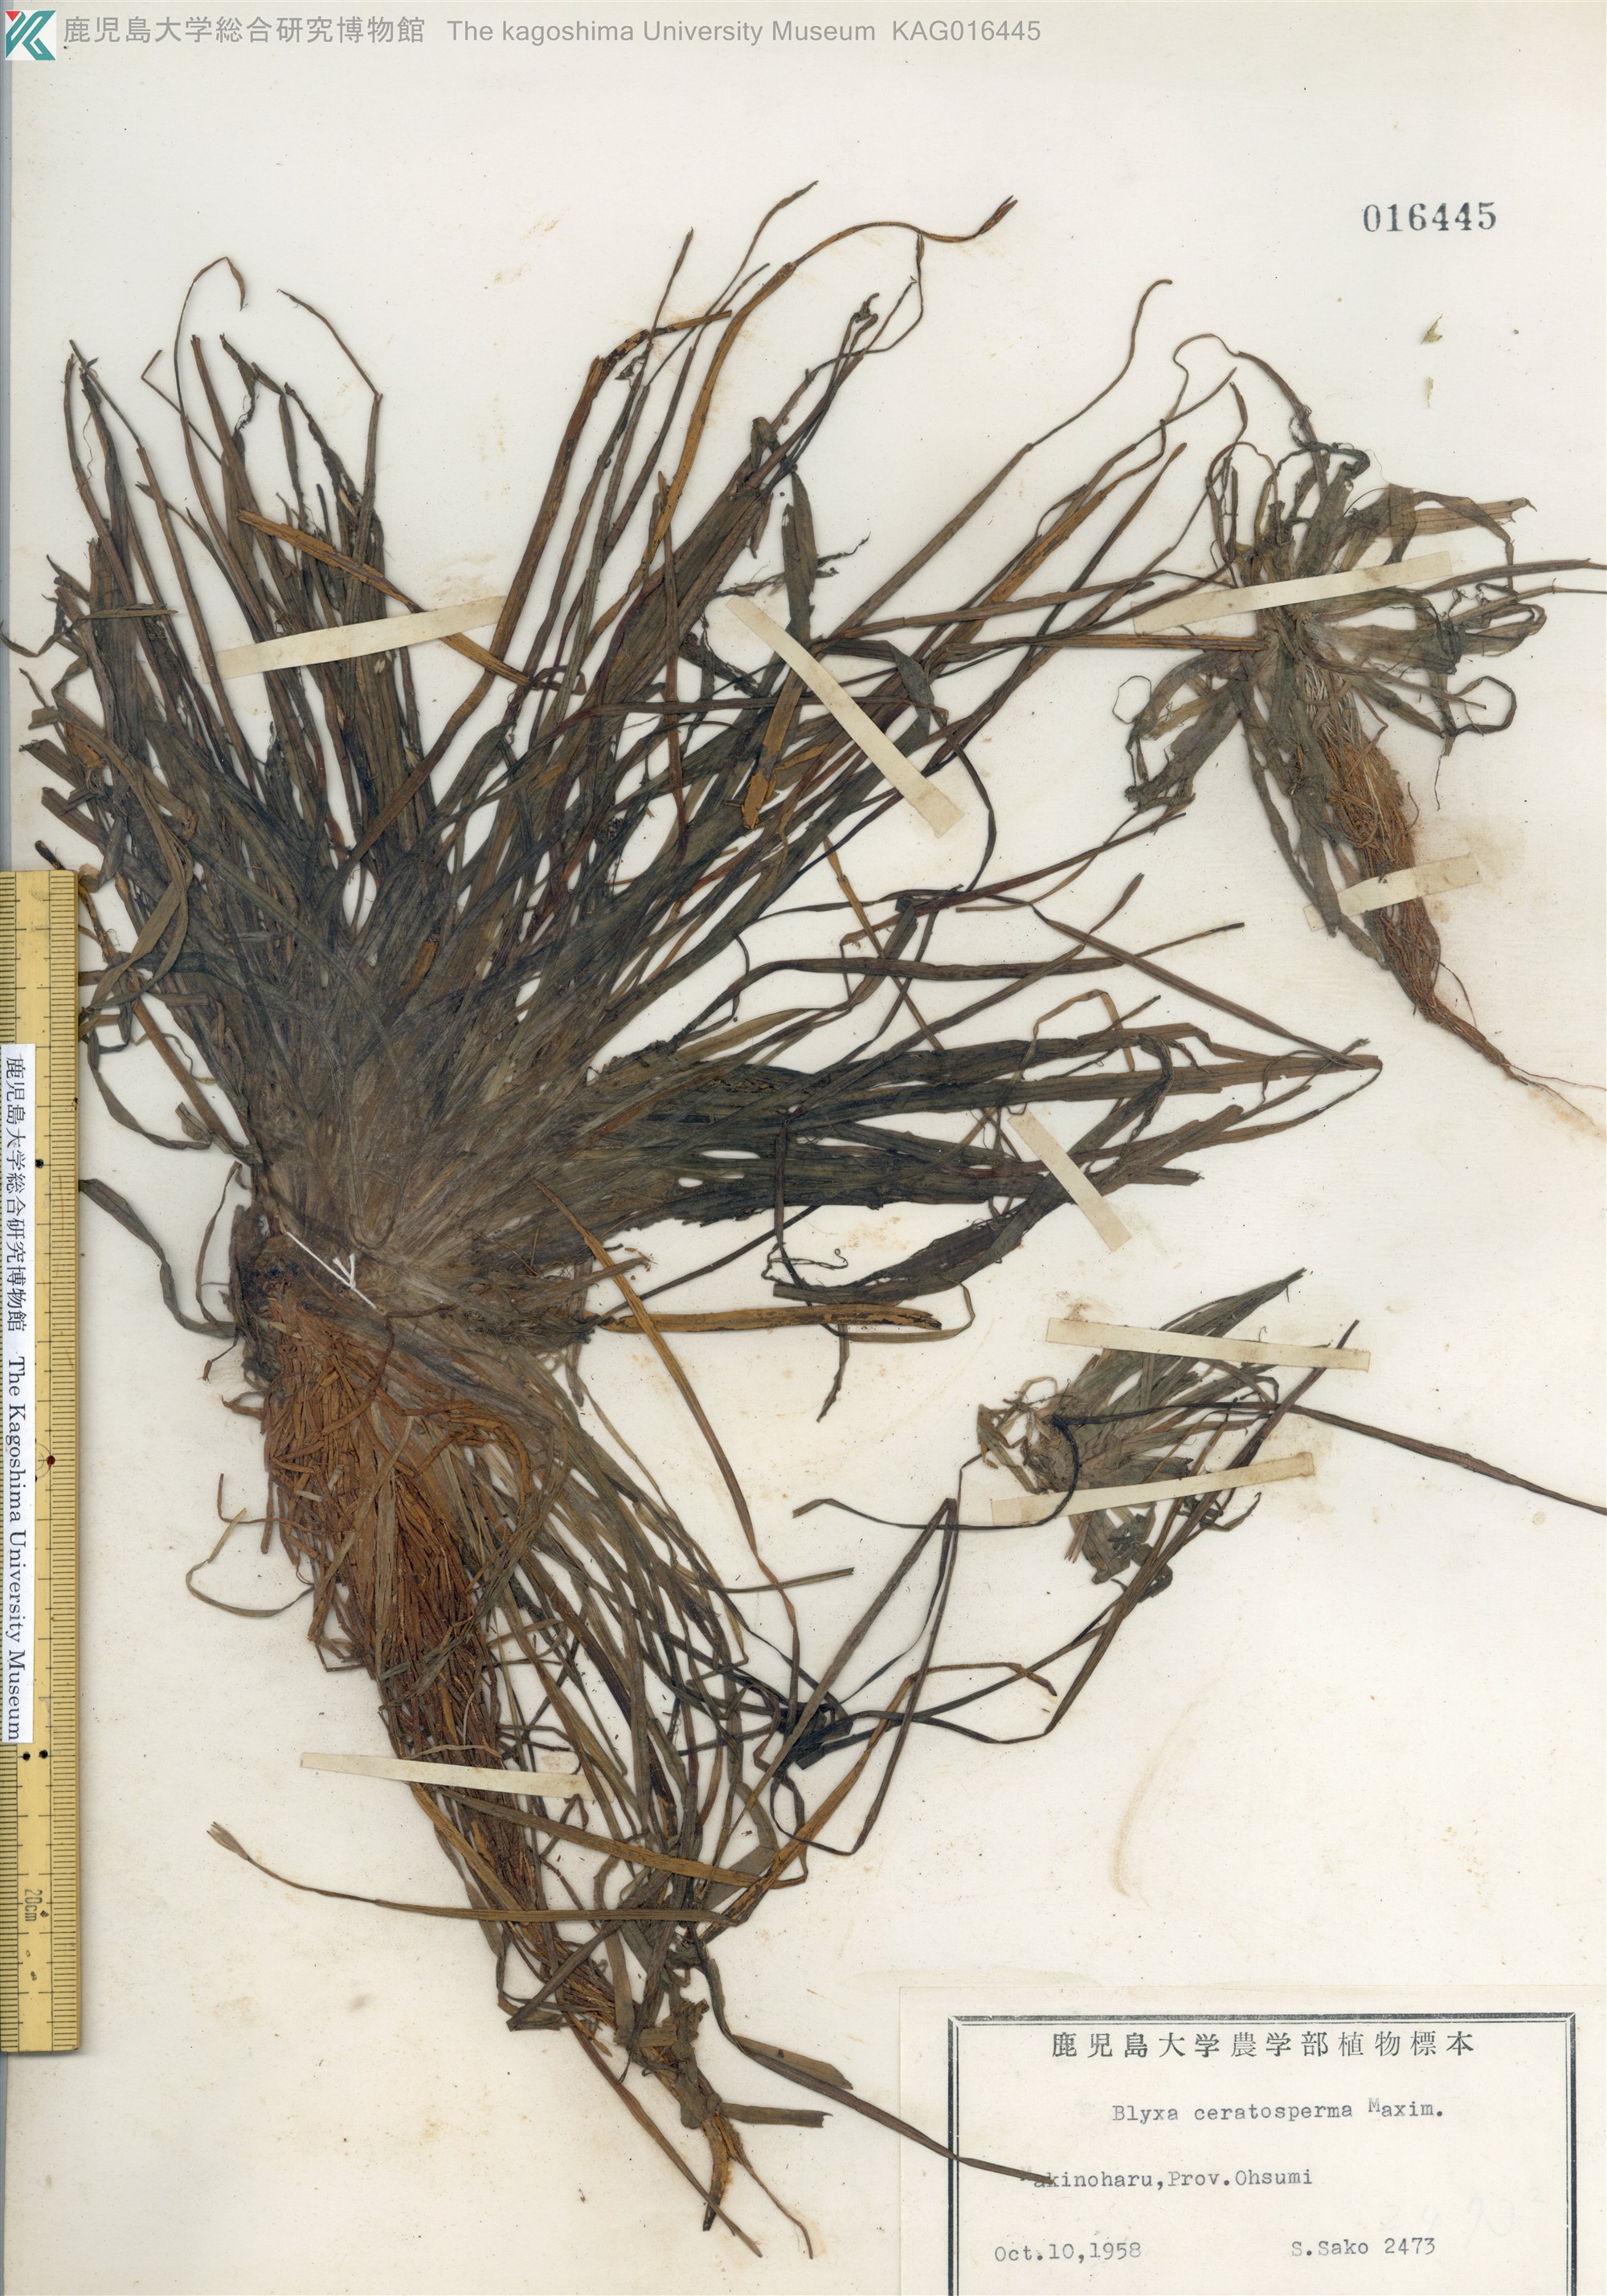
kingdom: Plantae
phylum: Tracheophyta
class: Liliopsida
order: Alismatales
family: Hydrocharitaceae
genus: Blyxa
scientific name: Blyxa echinosperma
